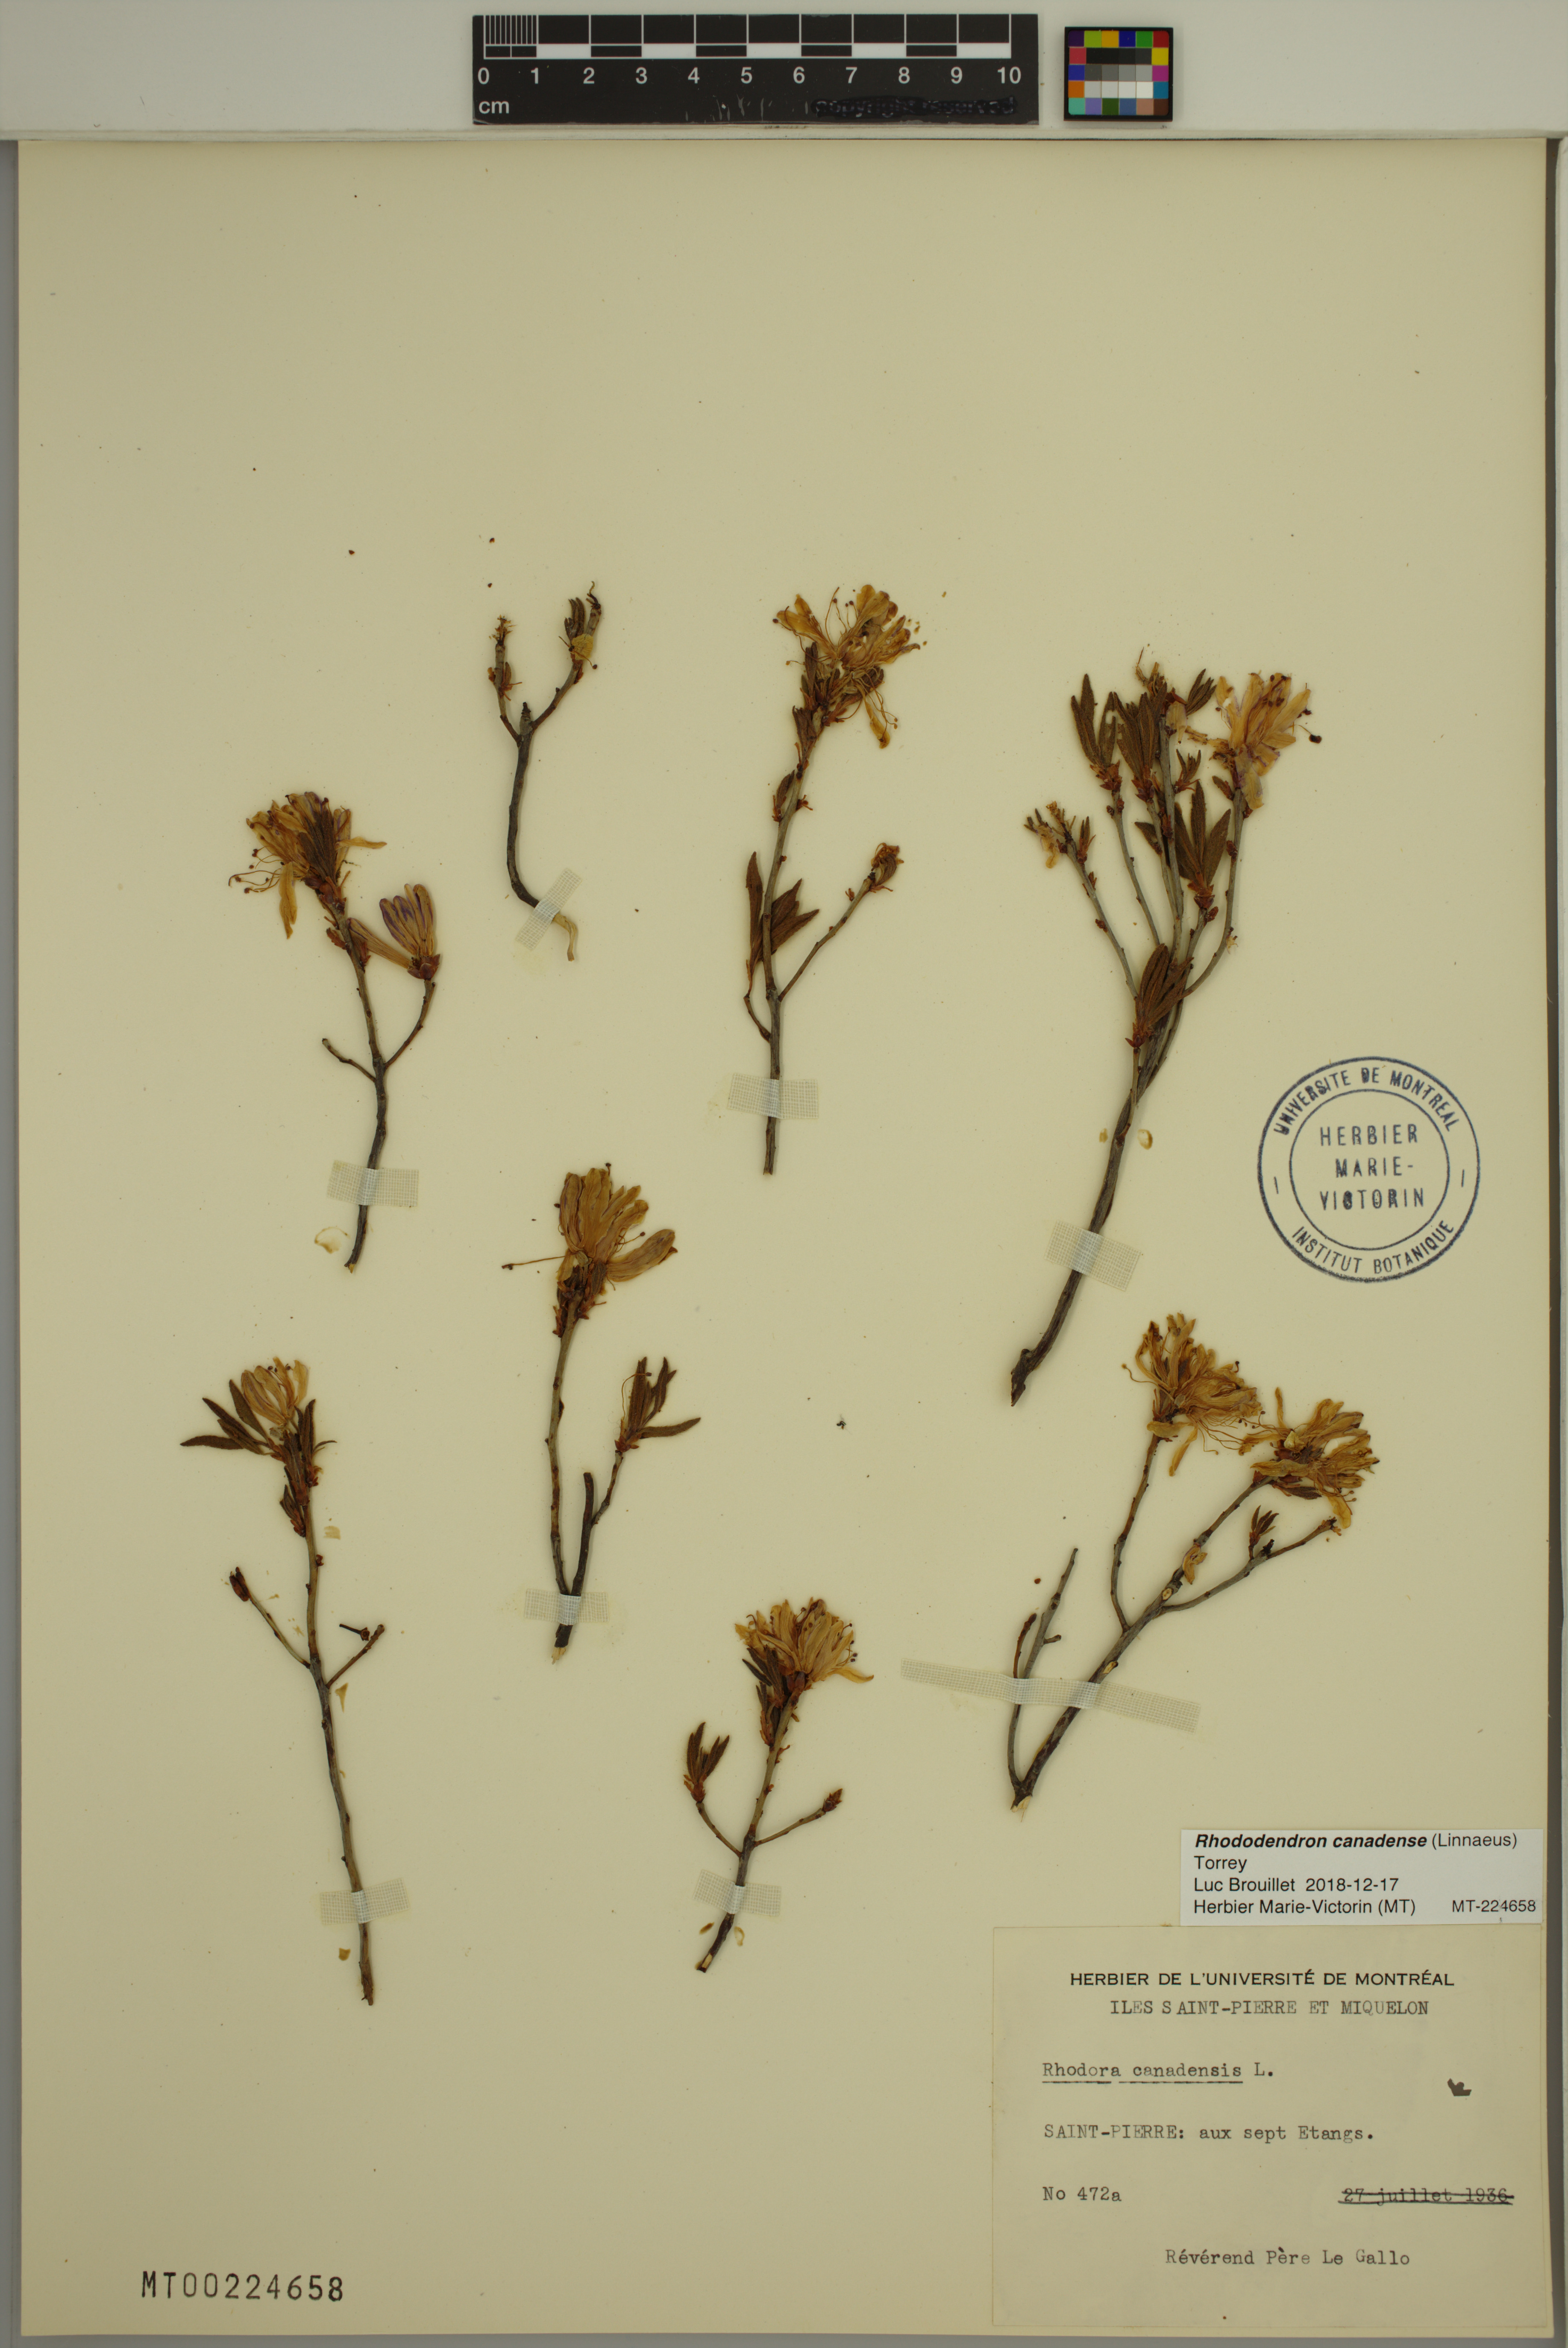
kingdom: Plantae
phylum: Tracheophyta
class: Magnoliopsida
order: Ericales
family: Ericaceae
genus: Rhododendron
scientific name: Rhododendron canadense
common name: Rhodora
